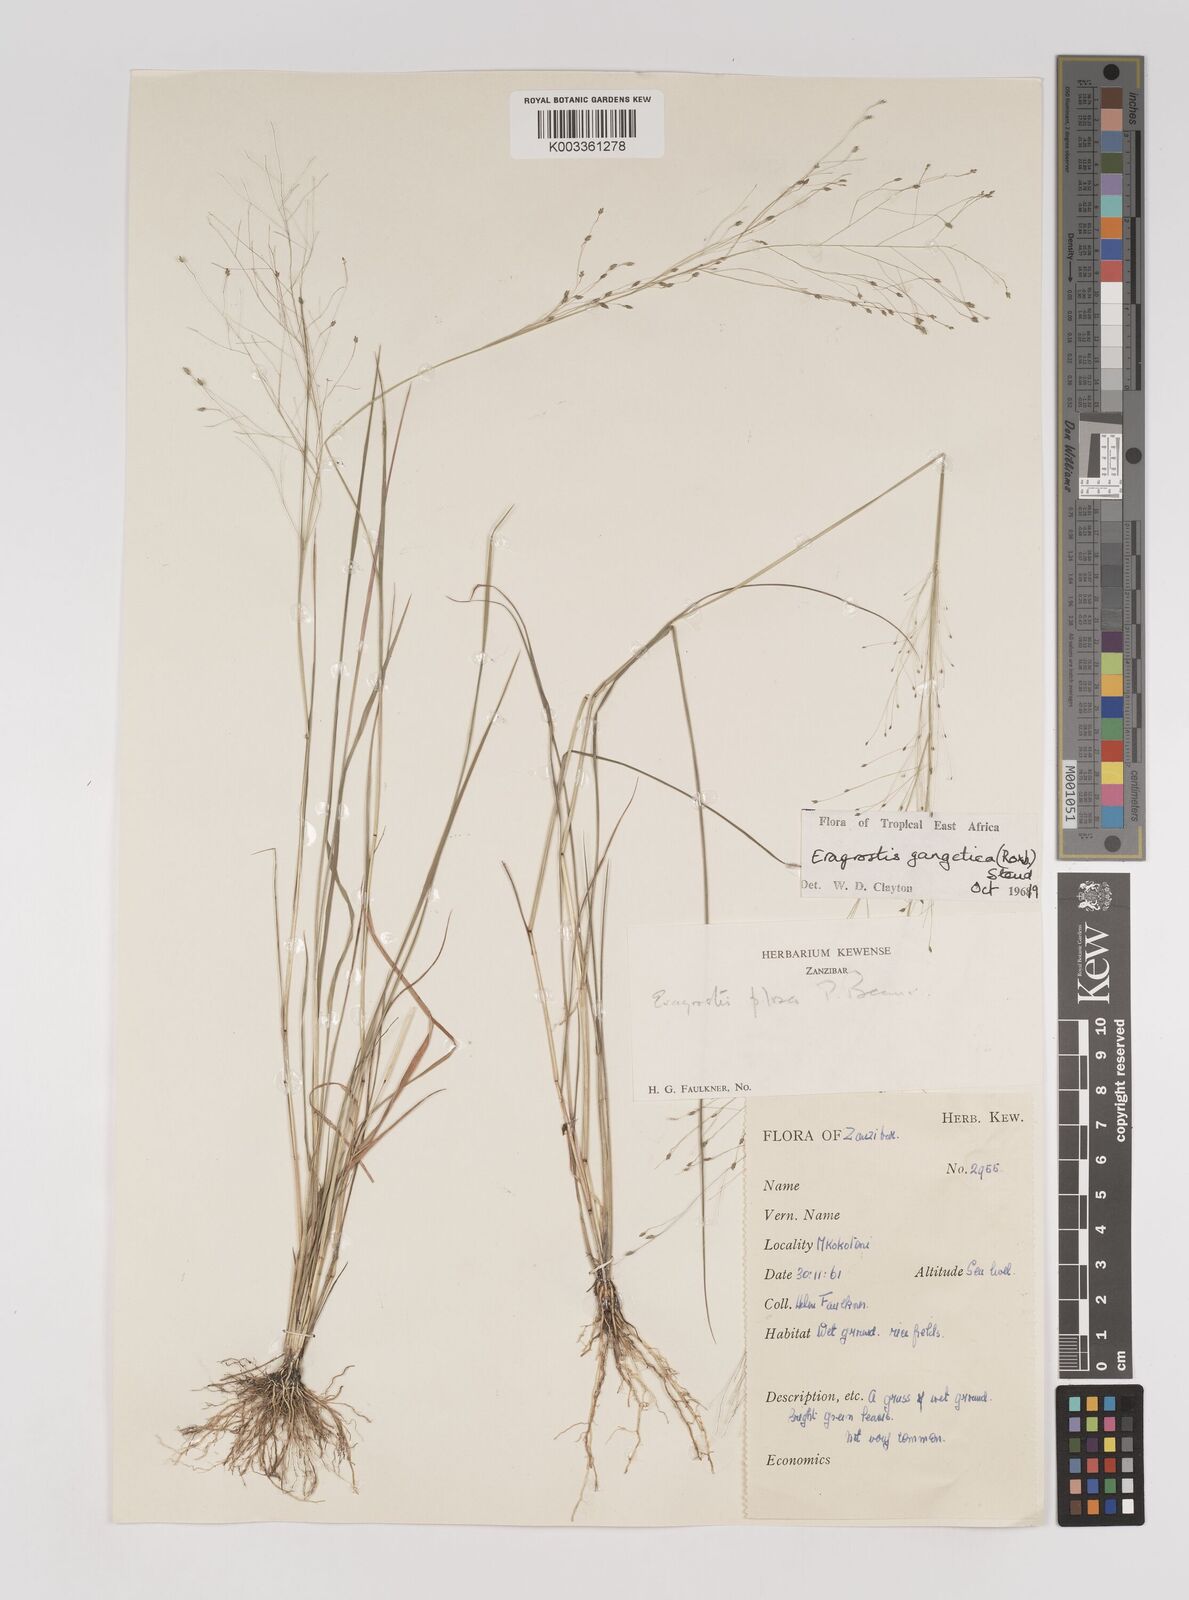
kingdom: Plantae
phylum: Tracheophyta
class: Liliopsida
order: Poales
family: Poaceae
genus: Eragrostis
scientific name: Eragrostis gangetica
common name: Slimflower lovegrass
